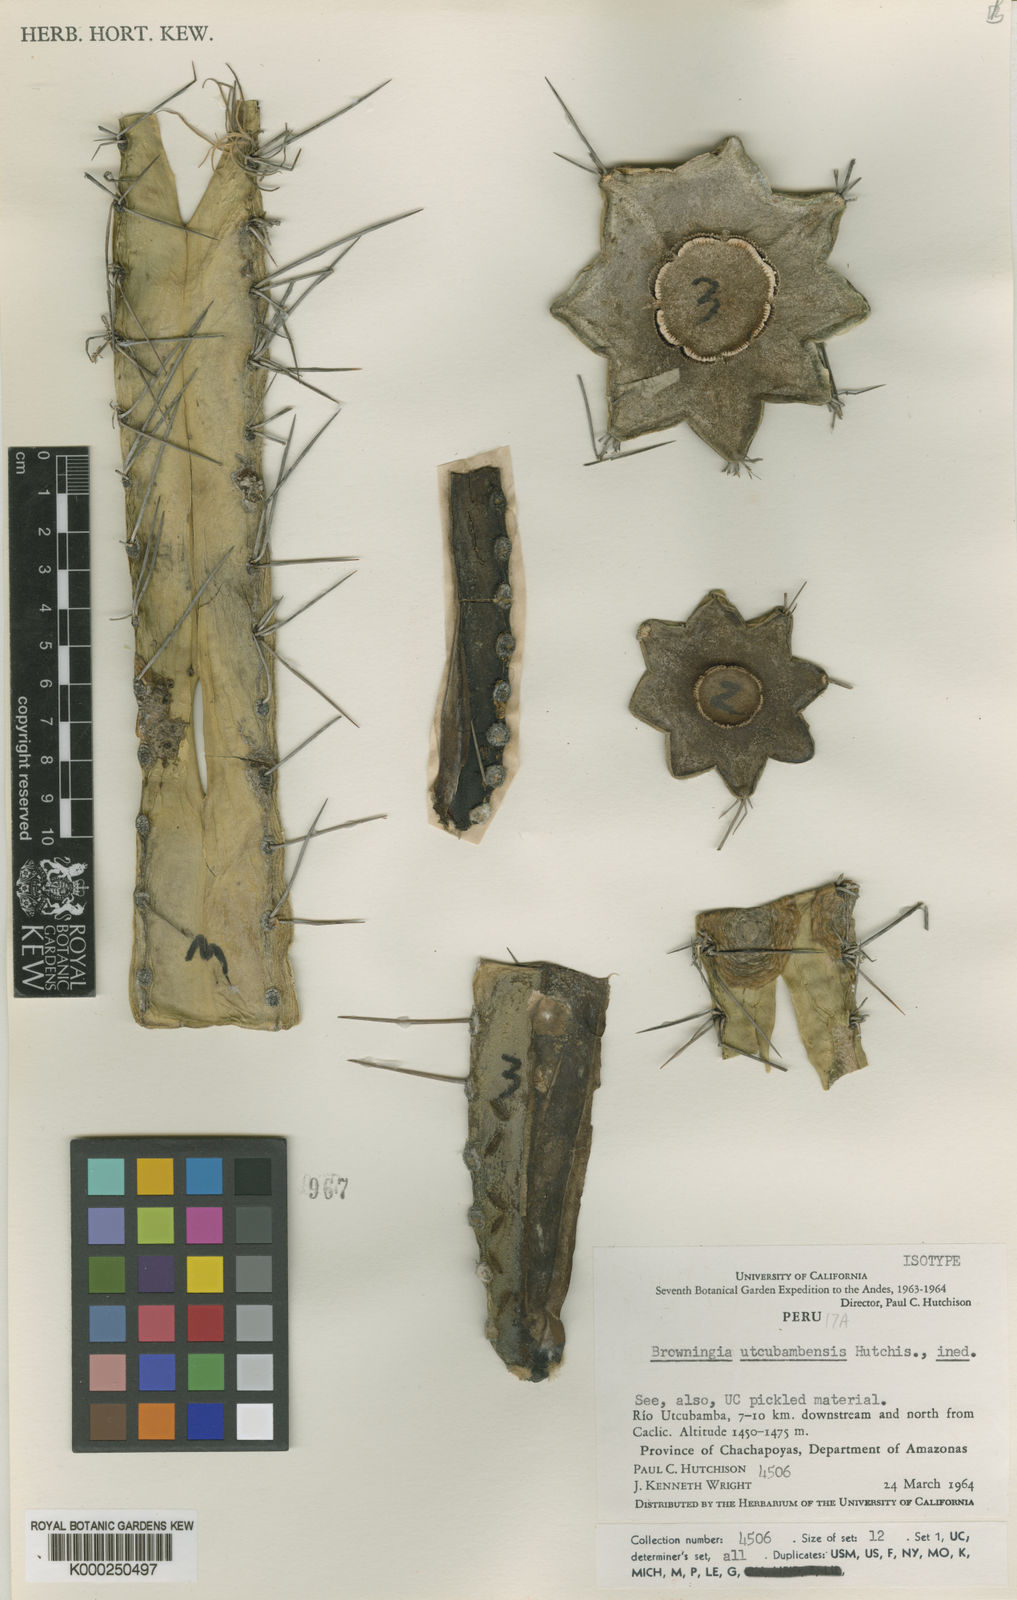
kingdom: Plantae
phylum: Tracheophyta
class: Magnoliopsida
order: Caryophyllales
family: Cactaceae
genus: Browningia
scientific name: Browningia
